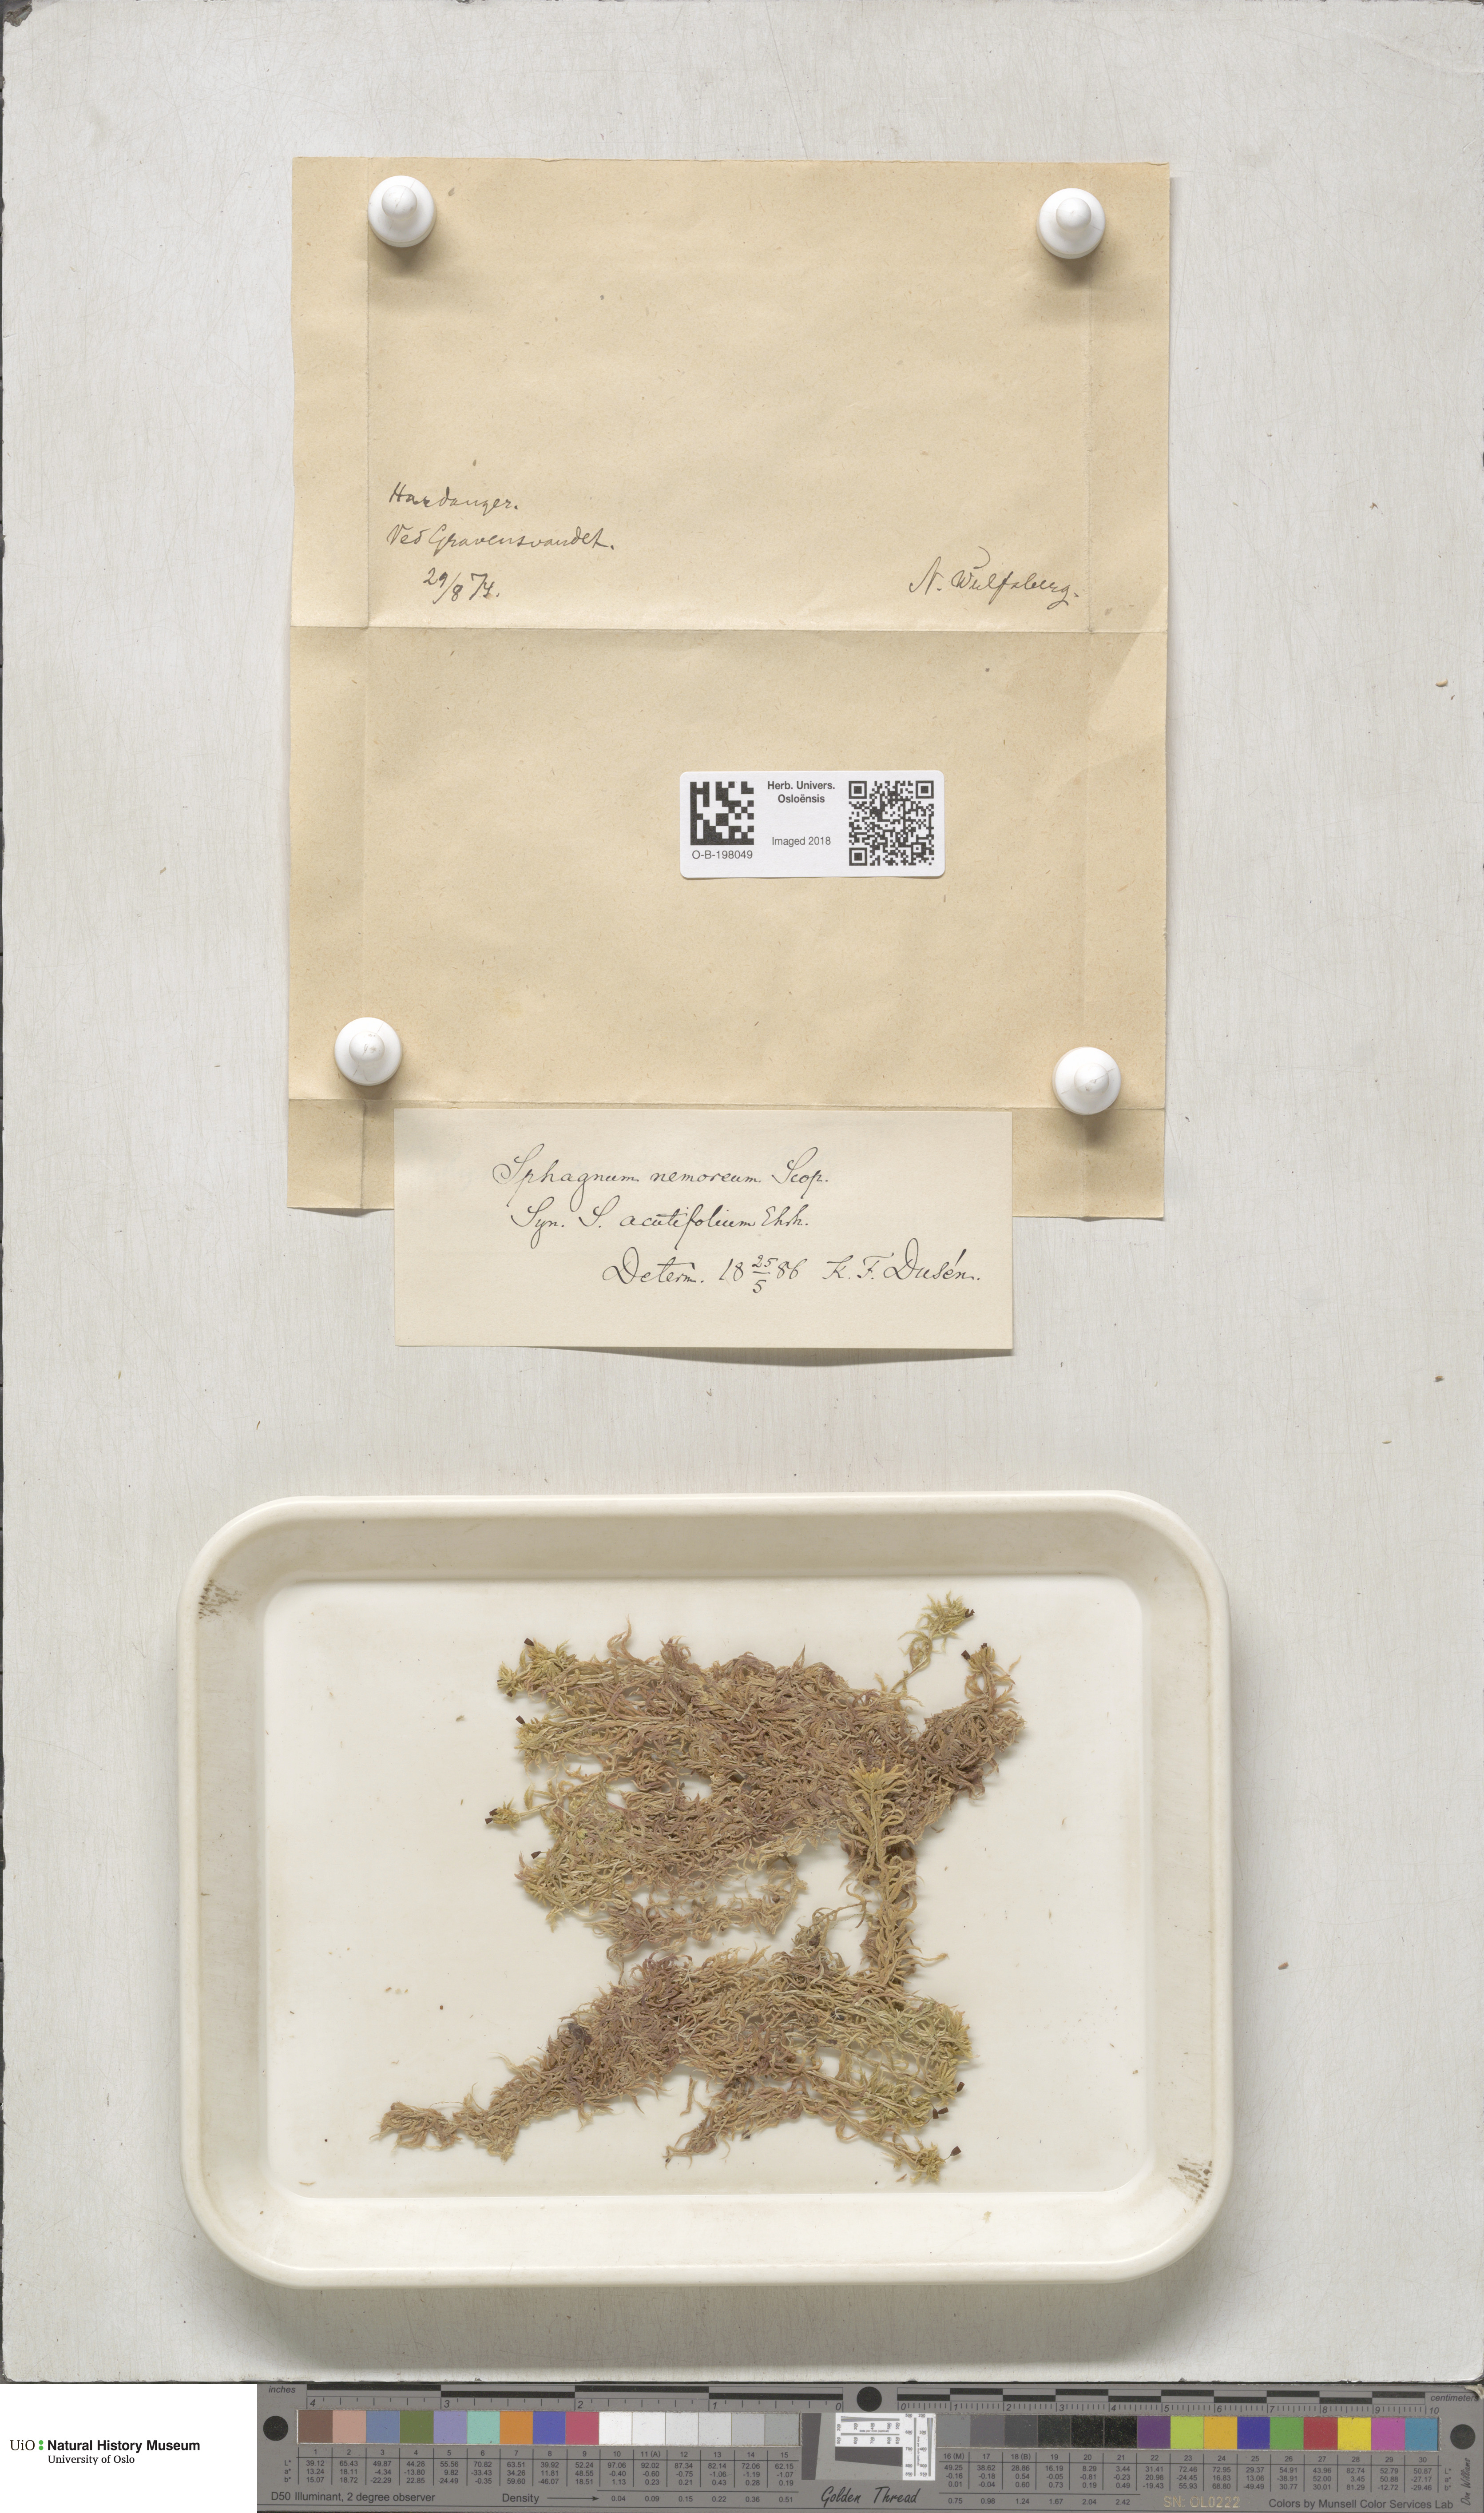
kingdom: Plantae
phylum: Bryophyta
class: Sphagnopsida
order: Sphagnales
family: Sphagnaceae
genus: Sphagnum
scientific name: Sphagnum capillifolium
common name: Small red peat moss
